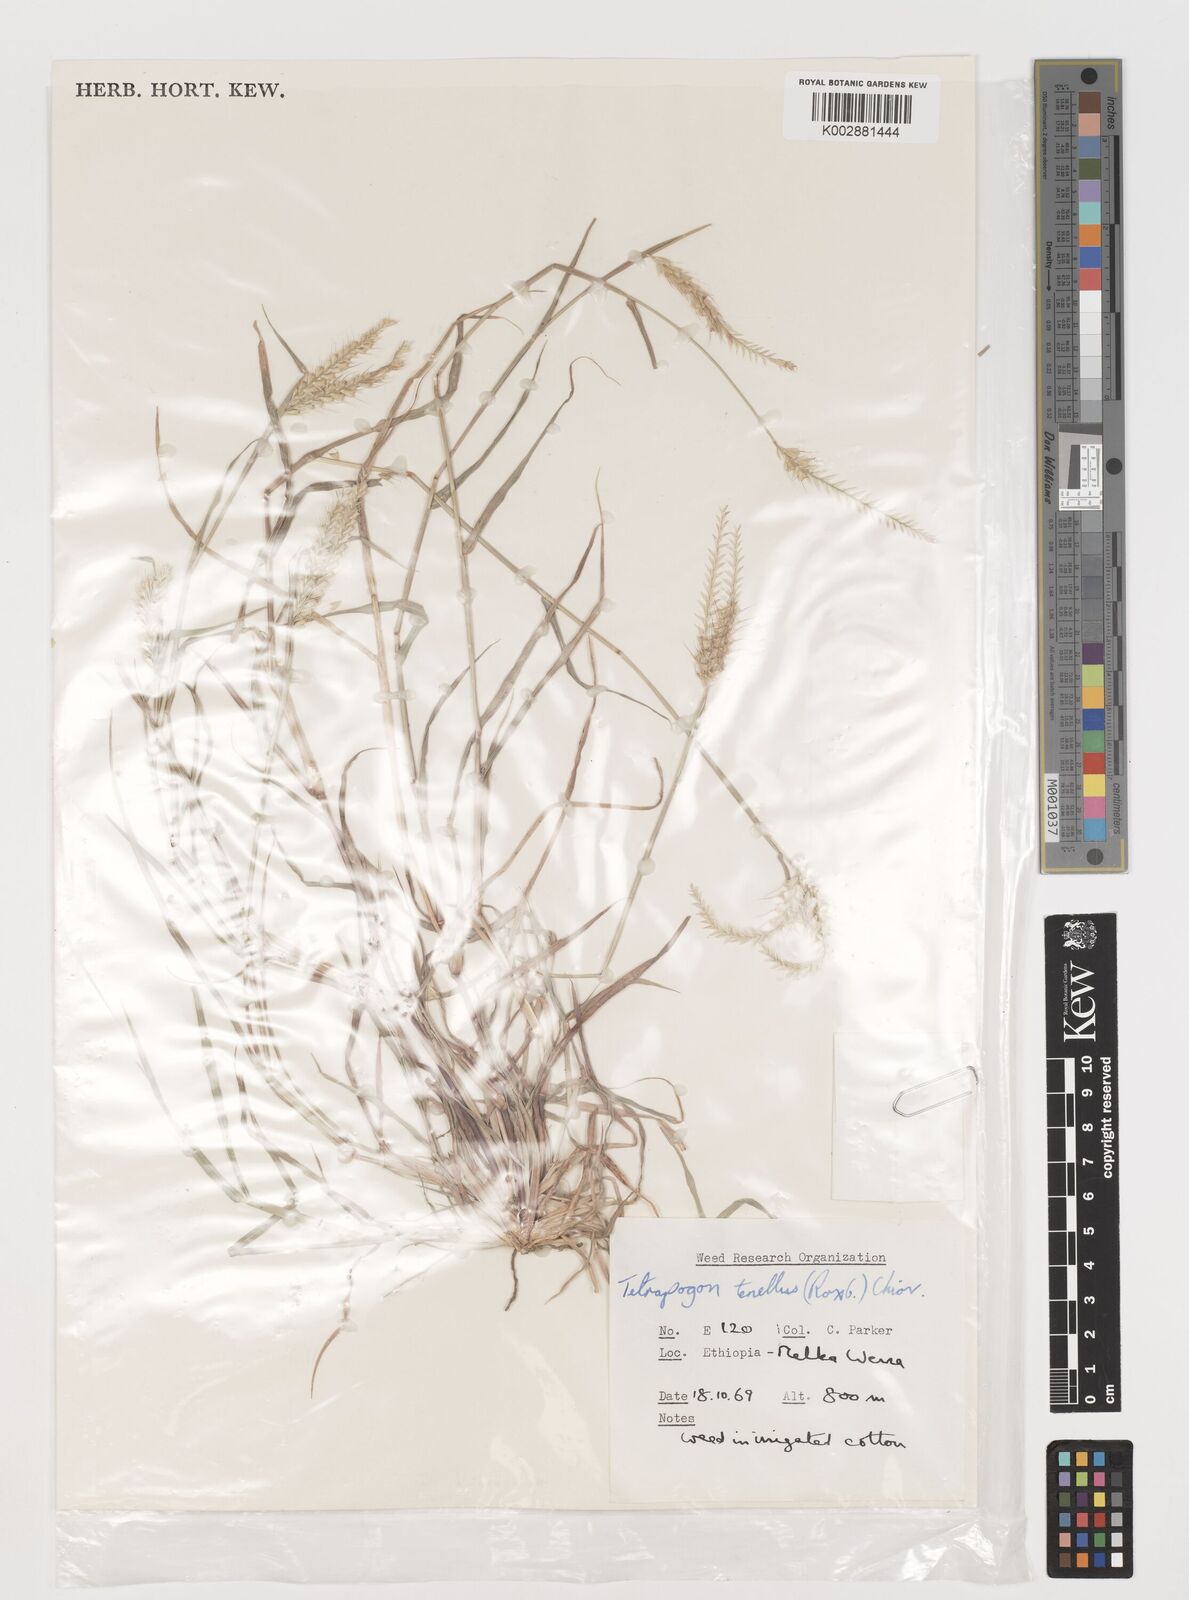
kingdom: Plantae
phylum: Tracheophyta
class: Liliopsida
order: Poales
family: Poaceae
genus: Tetrapogon
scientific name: Tetrapogon tenellus
